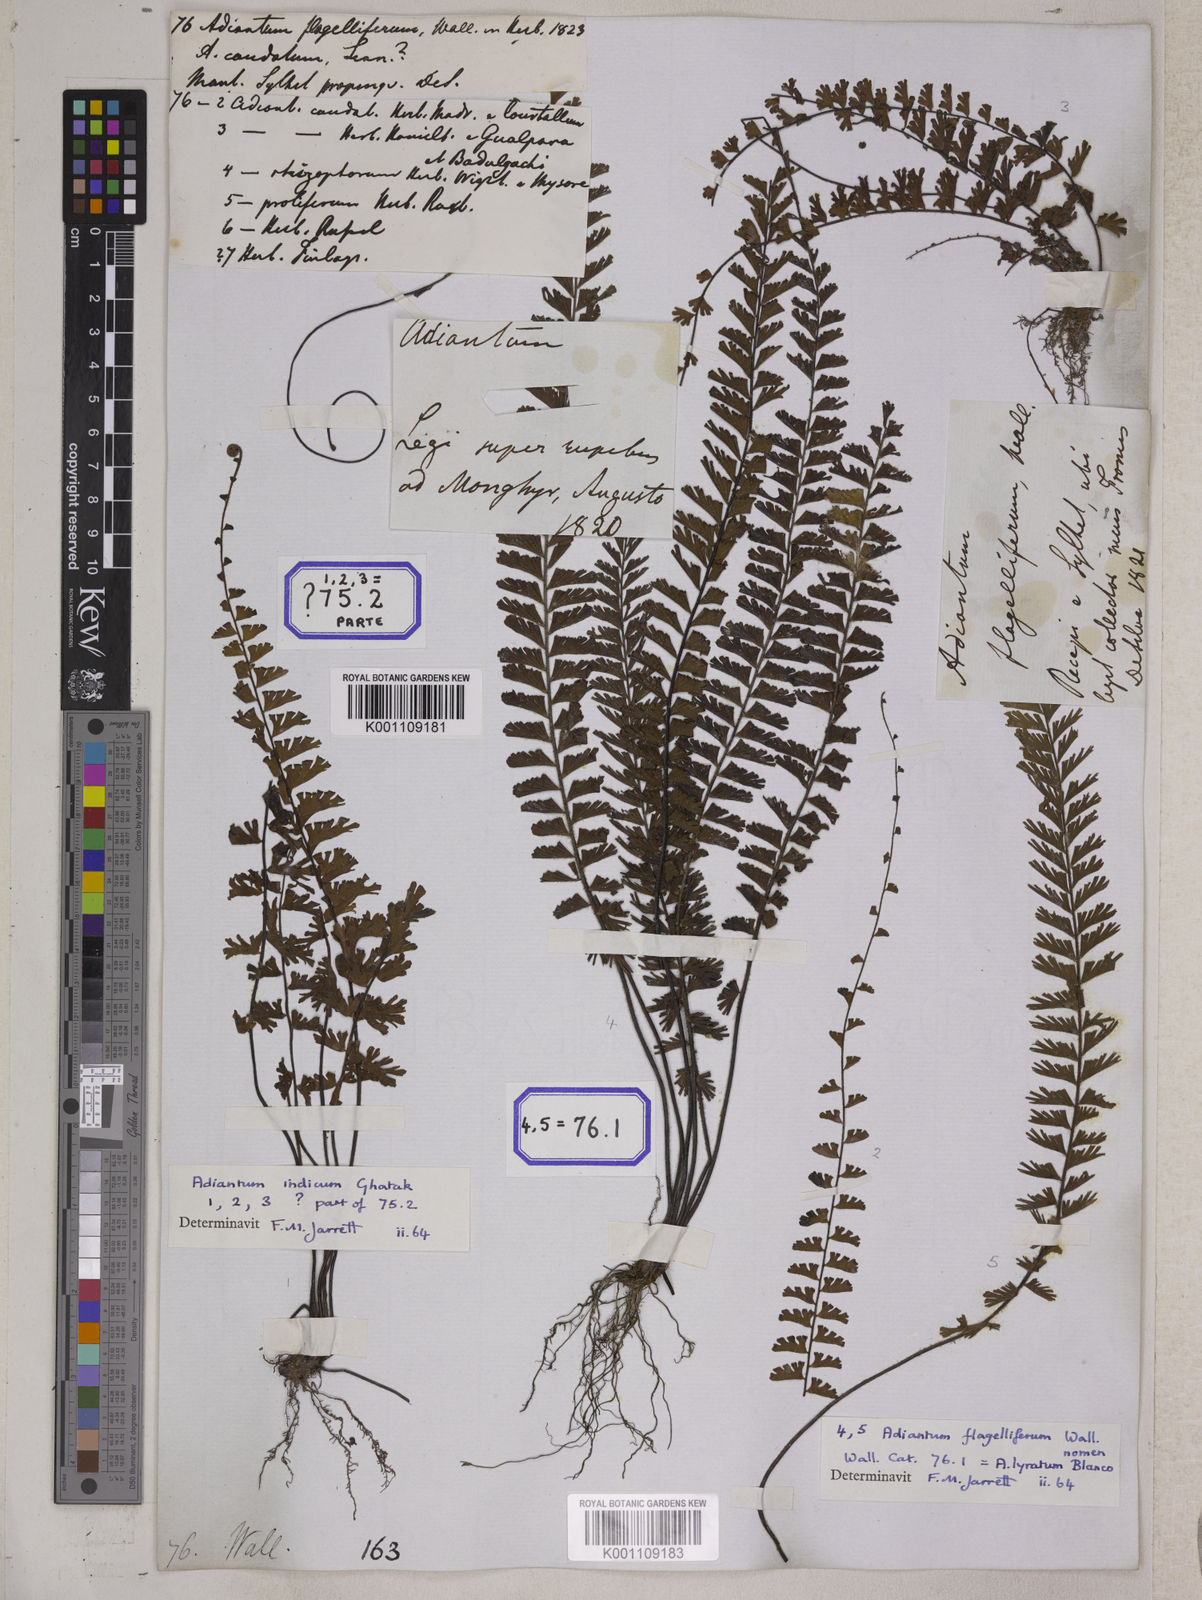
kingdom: Plantae
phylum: Tracheophyta
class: Polypodiopsida
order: Polypodiales
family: Pteridaceae
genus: Adiantum
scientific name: Adiantum caudatum
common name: Tailed maidenhair
